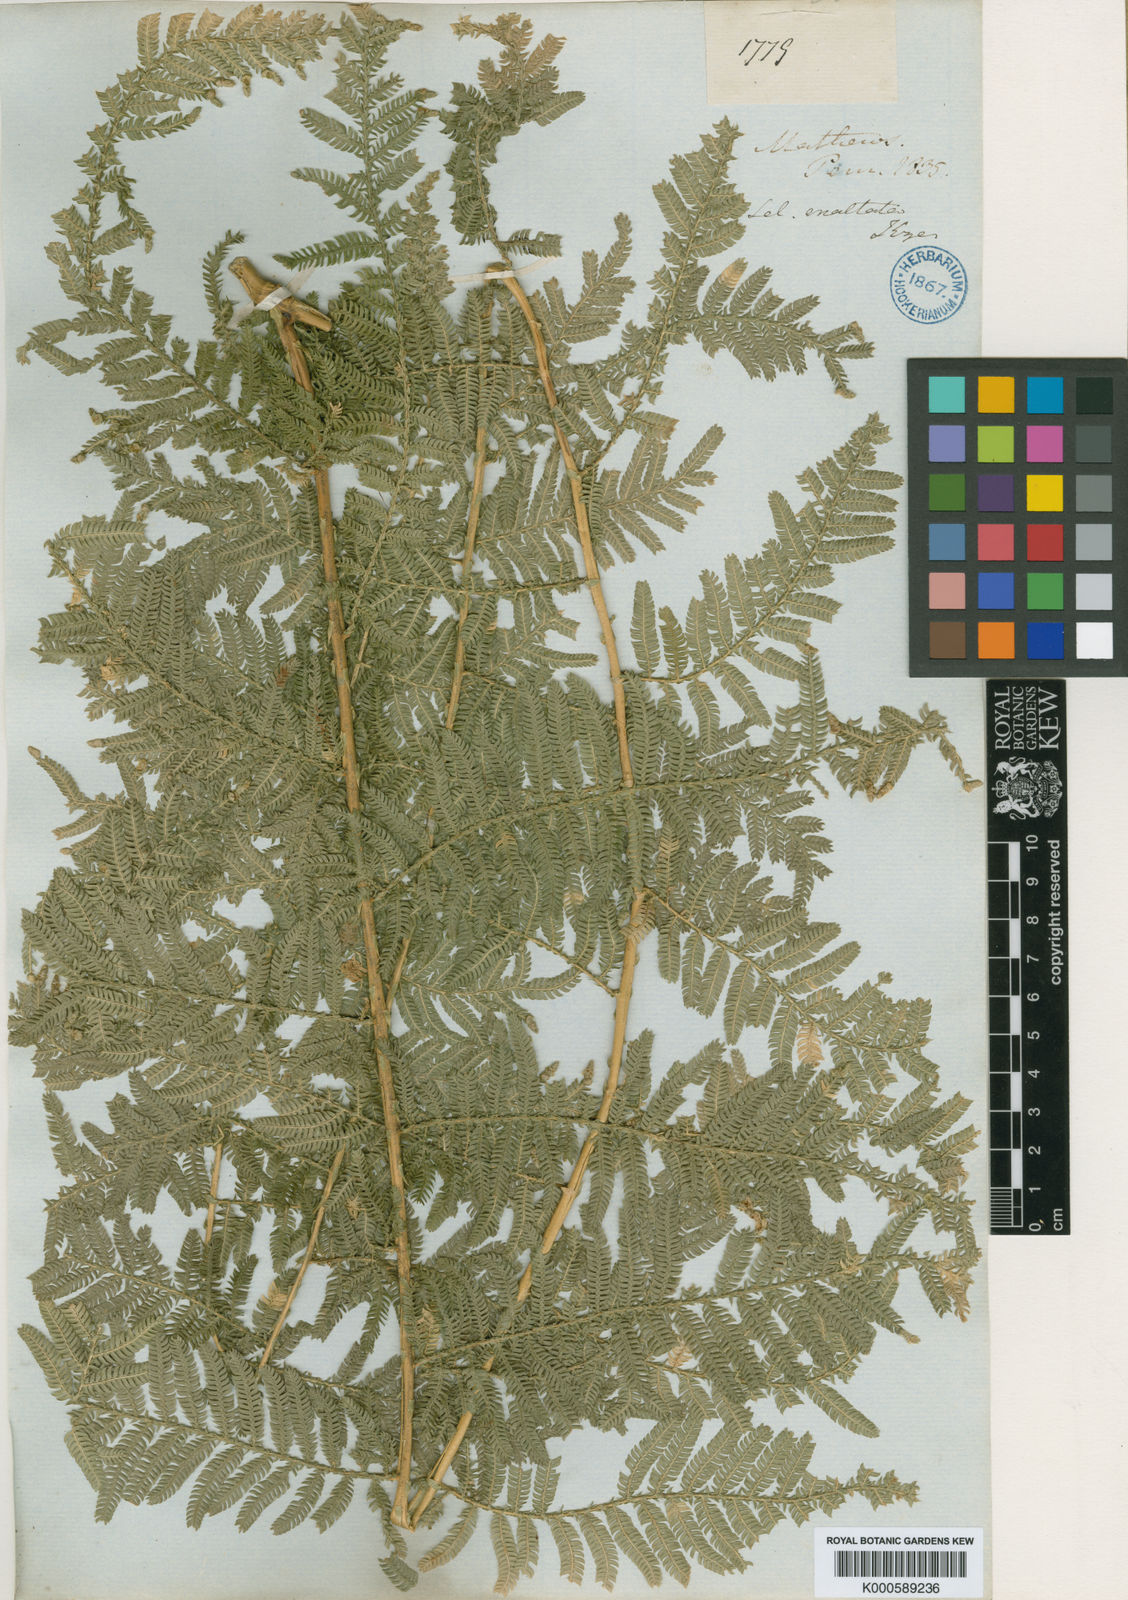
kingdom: Plantae
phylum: Tracheophyta
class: Lycopodiopsida
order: Selaginellales
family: Selaginellaceae
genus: Selaginella
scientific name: Selaginella exaltata
